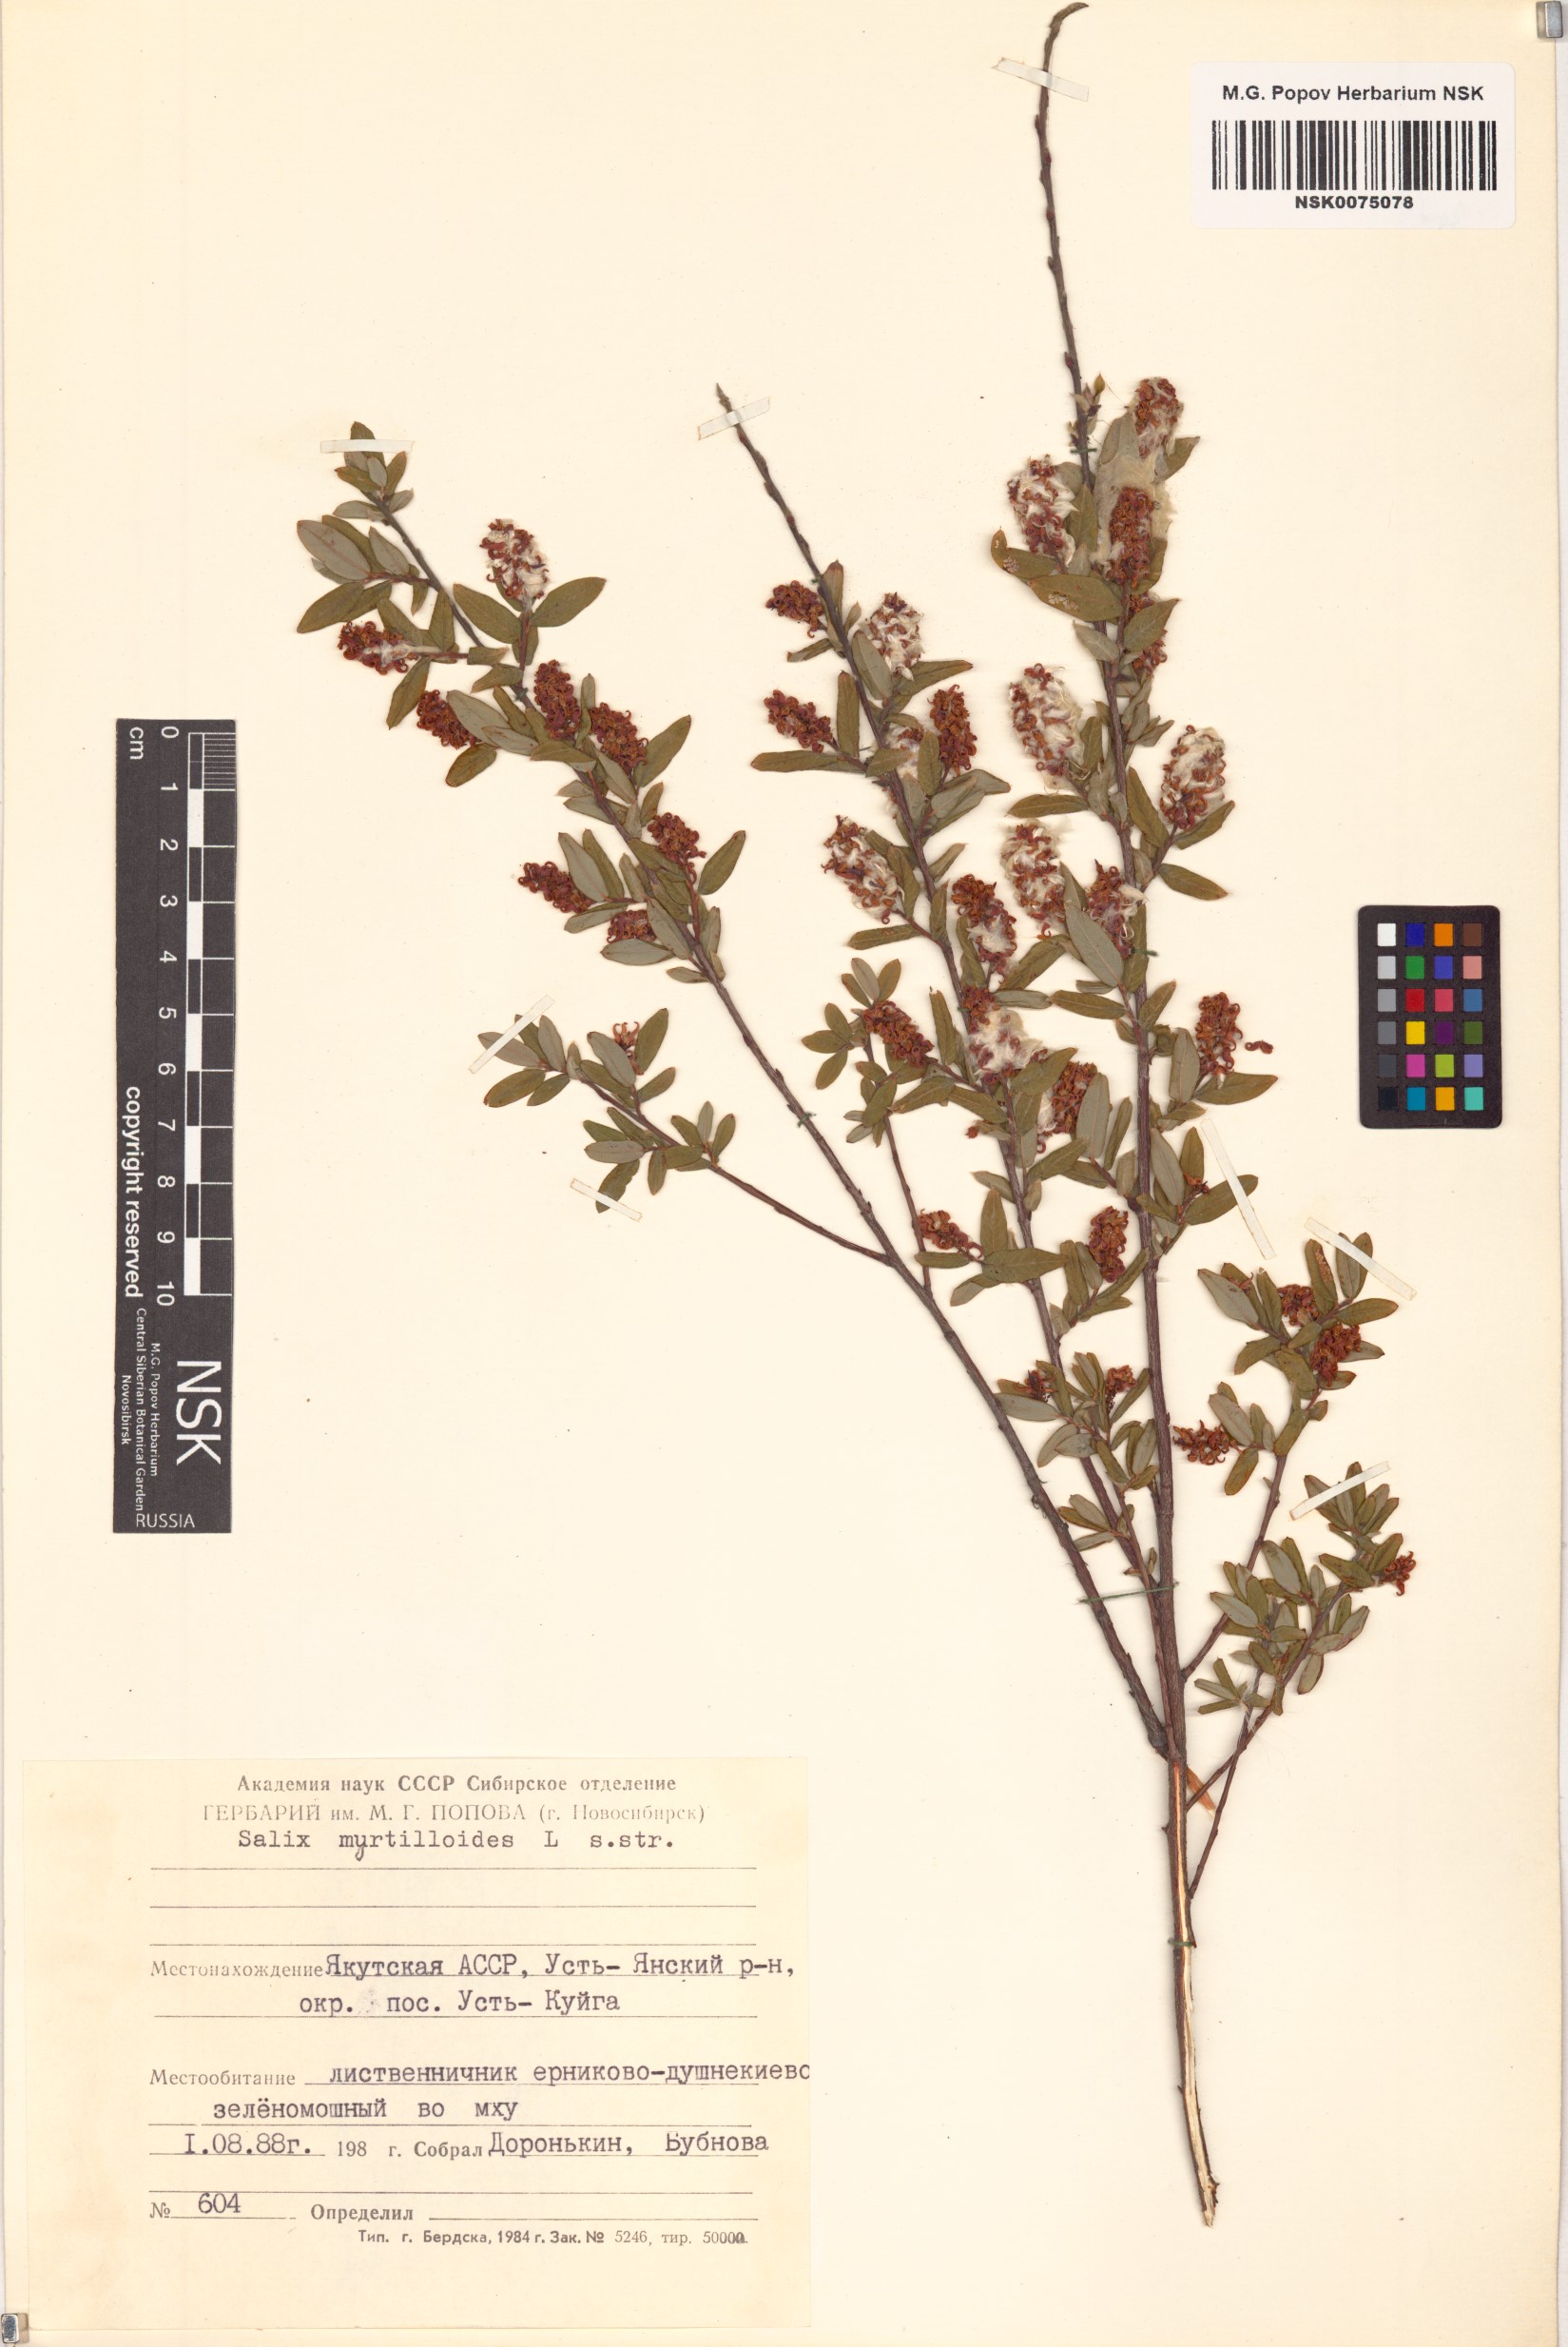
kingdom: Plantae
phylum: Tracheophyta
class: Magnoliopsida
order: Malpighiales
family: Salicaceae
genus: Salix
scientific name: Salix myrtilloides
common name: Myrtle-leaved willow
